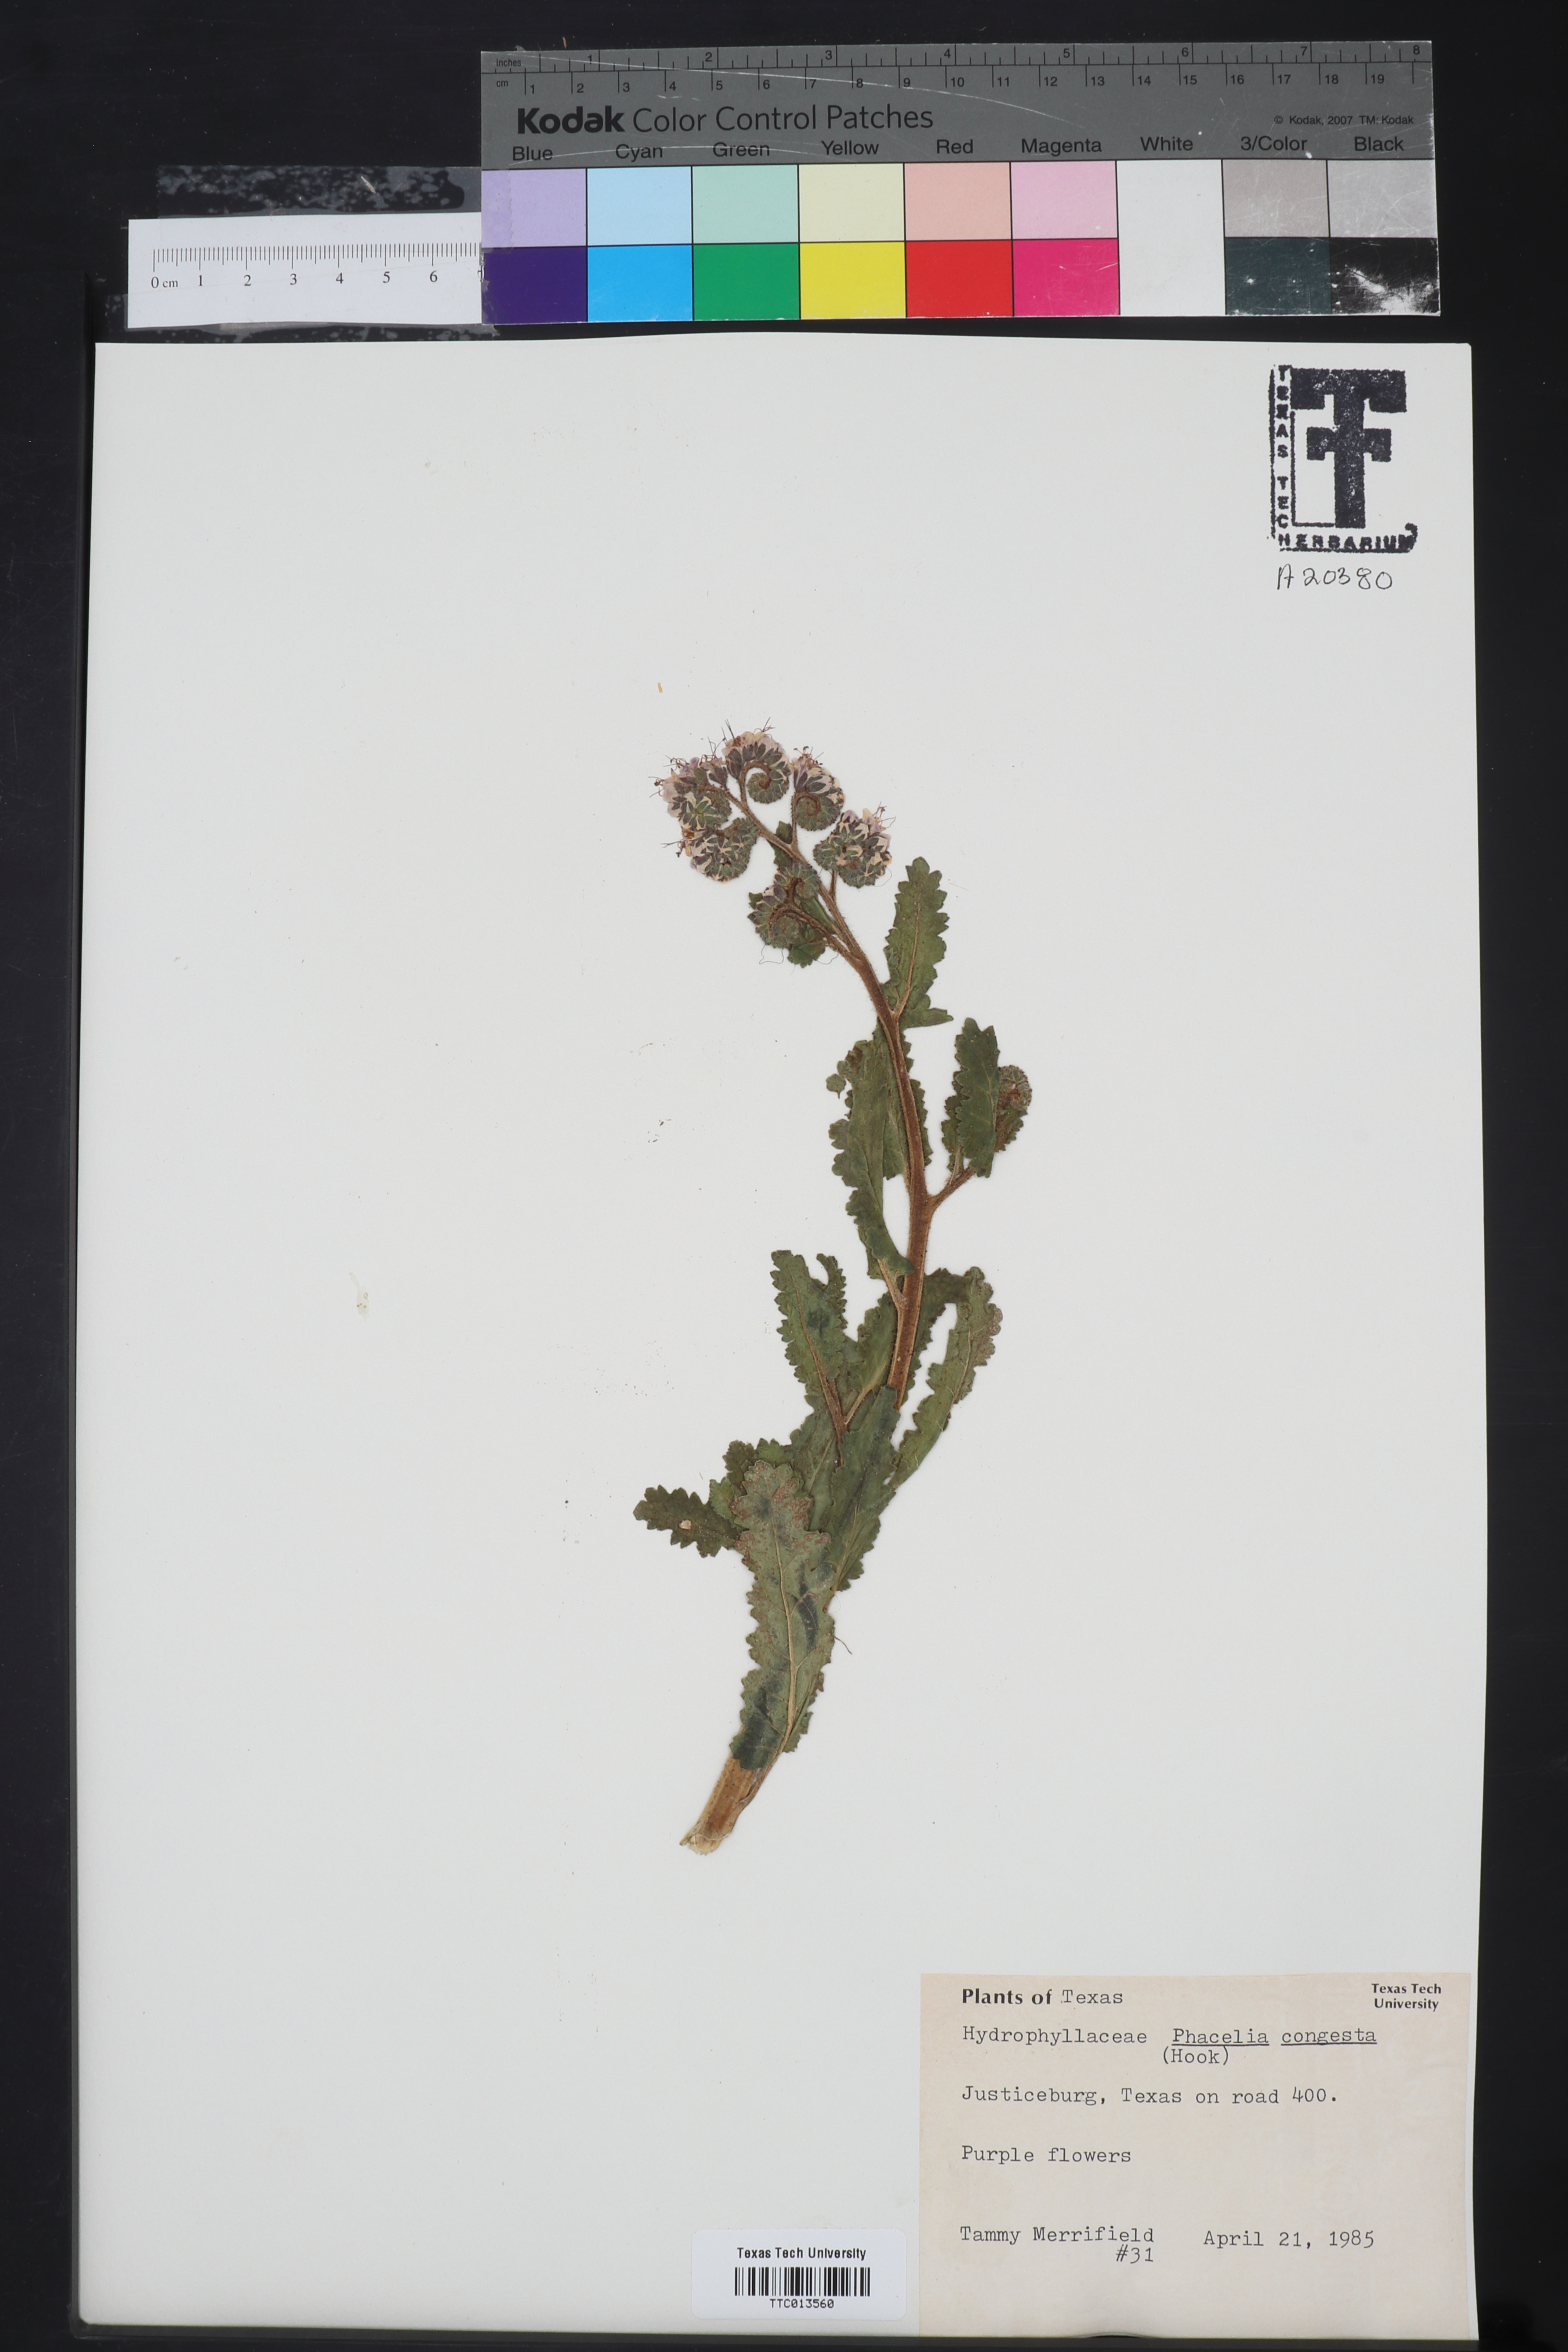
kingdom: Plantae
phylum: Tracheophyta
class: Magnoliopsida
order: Boraginales
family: Hydrophyllaceae
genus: Phacelia
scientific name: Phacelia congesta
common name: Blue curls
